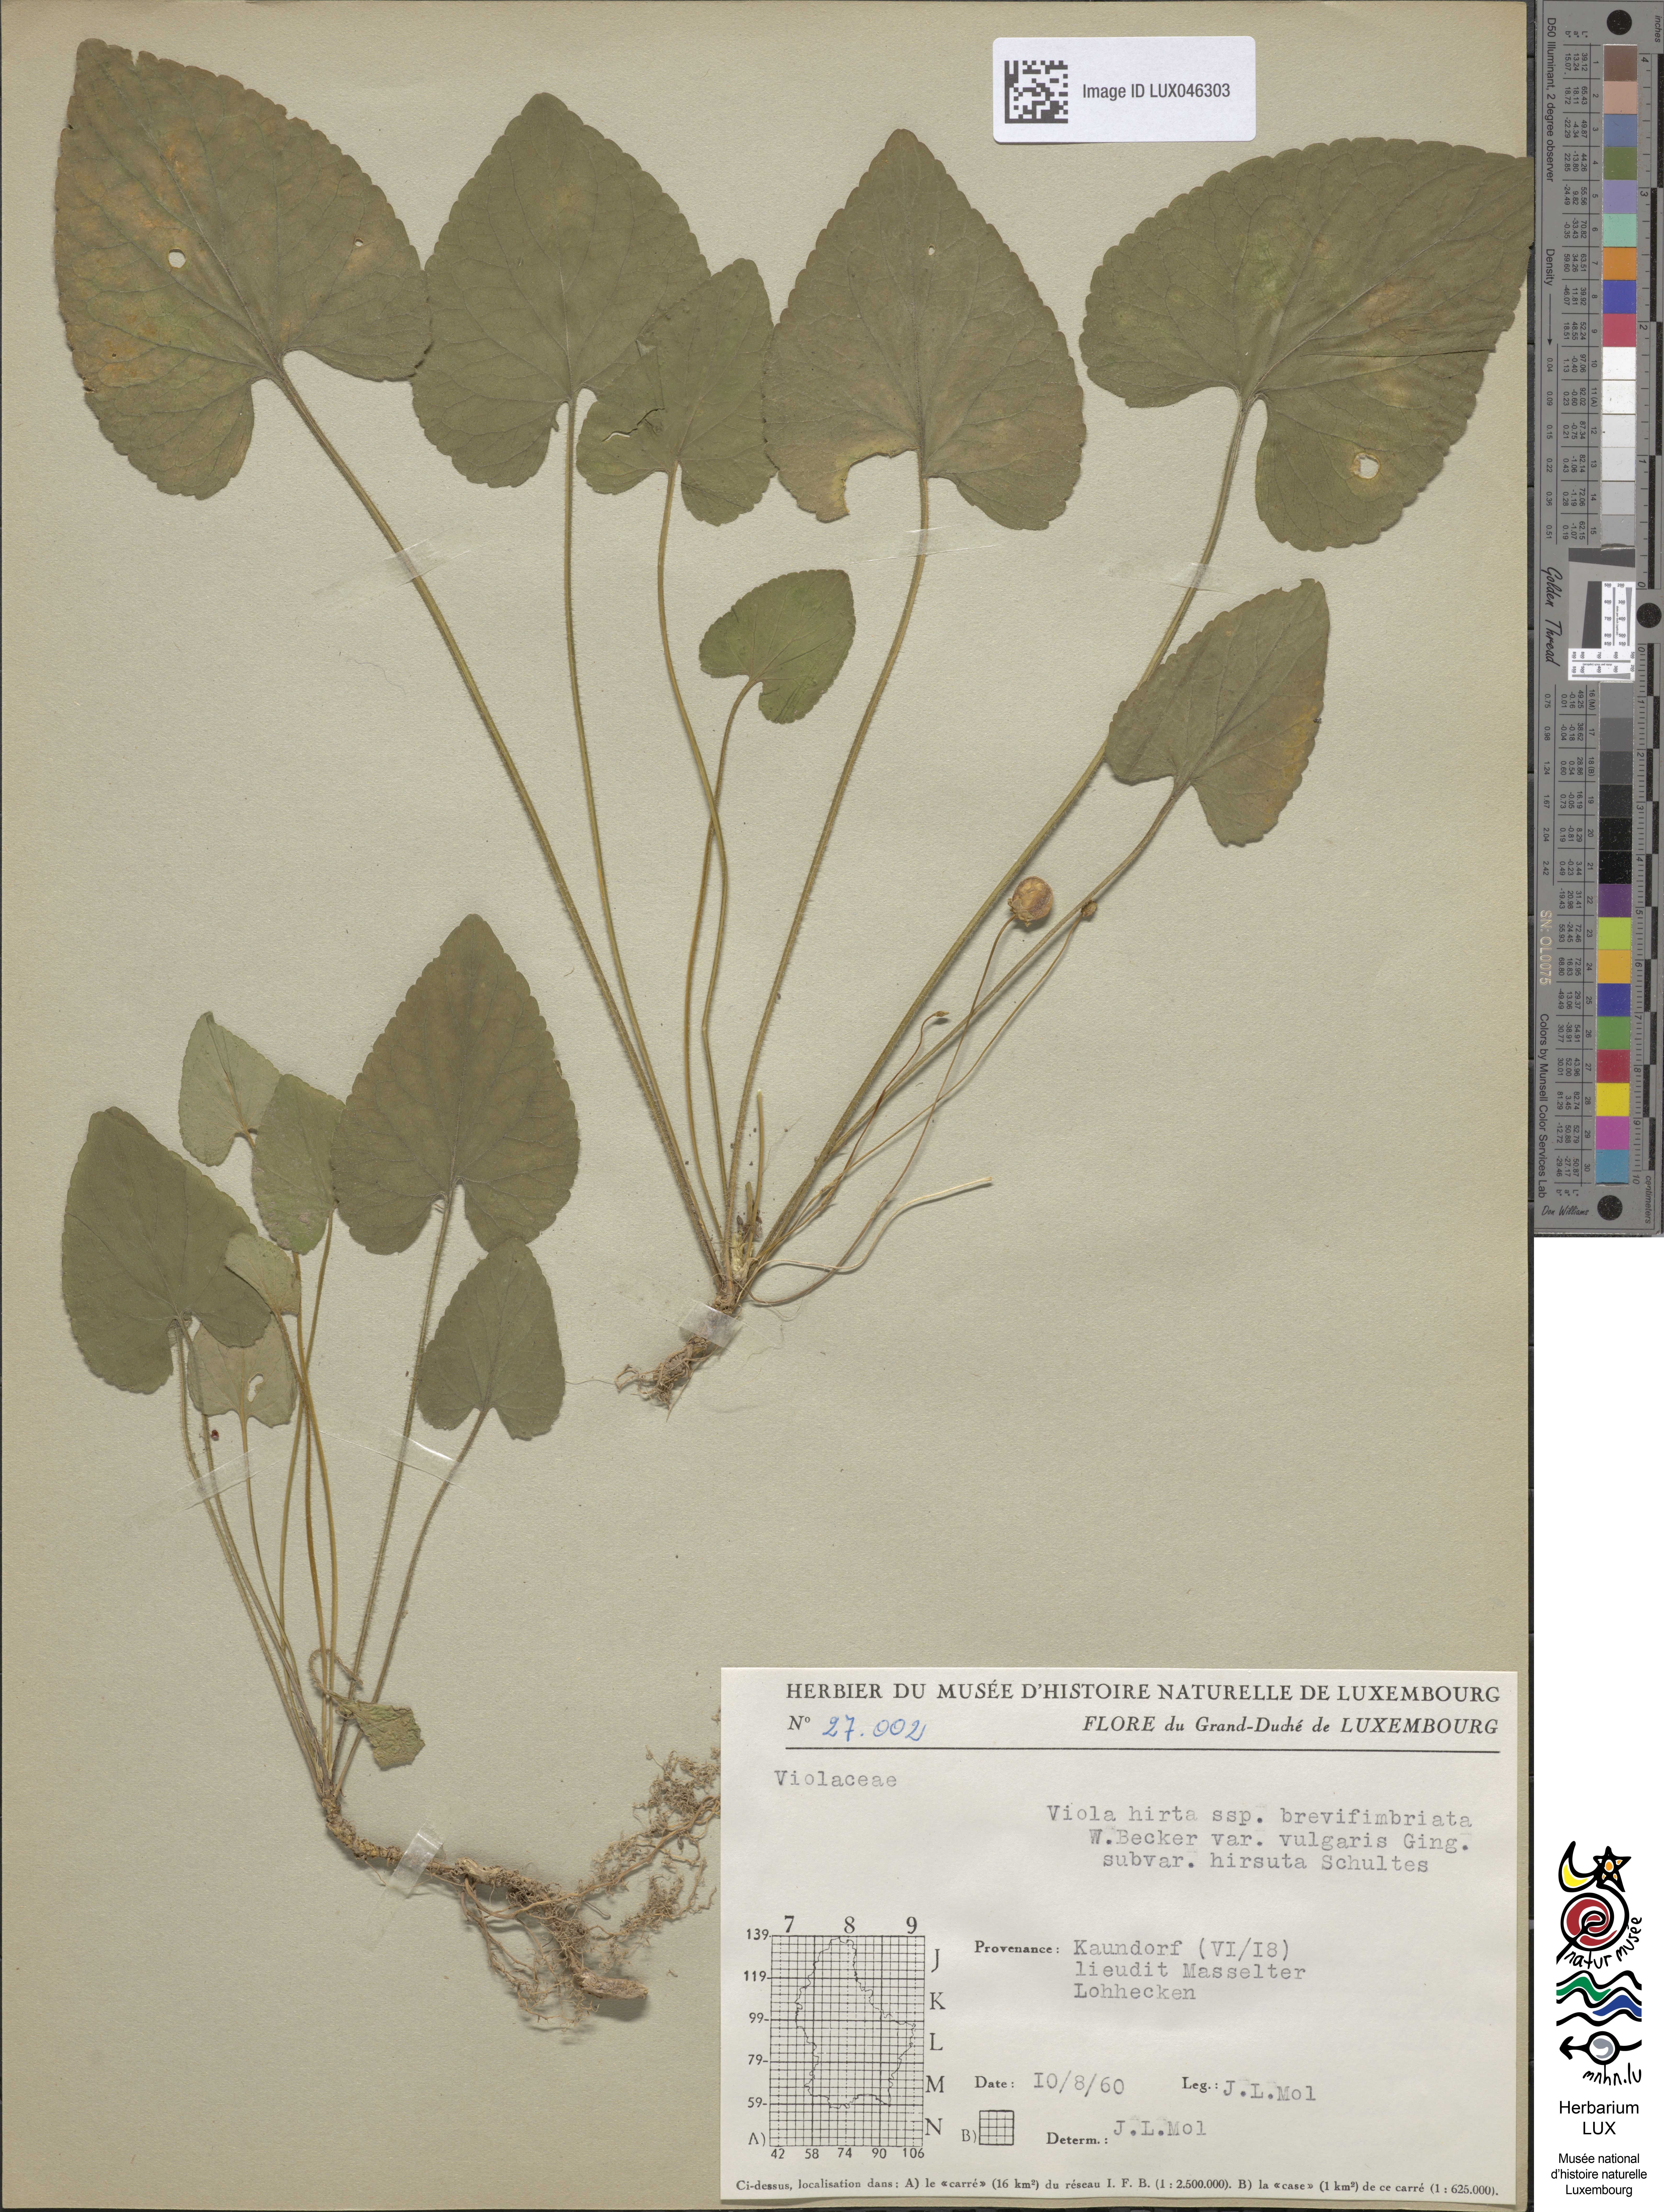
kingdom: Plantae
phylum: Tracheophyta
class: Magnoliopsida
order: Malpighiales
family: Violaceae
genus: Viola
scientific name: Viola hirta
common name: Hairy violet
